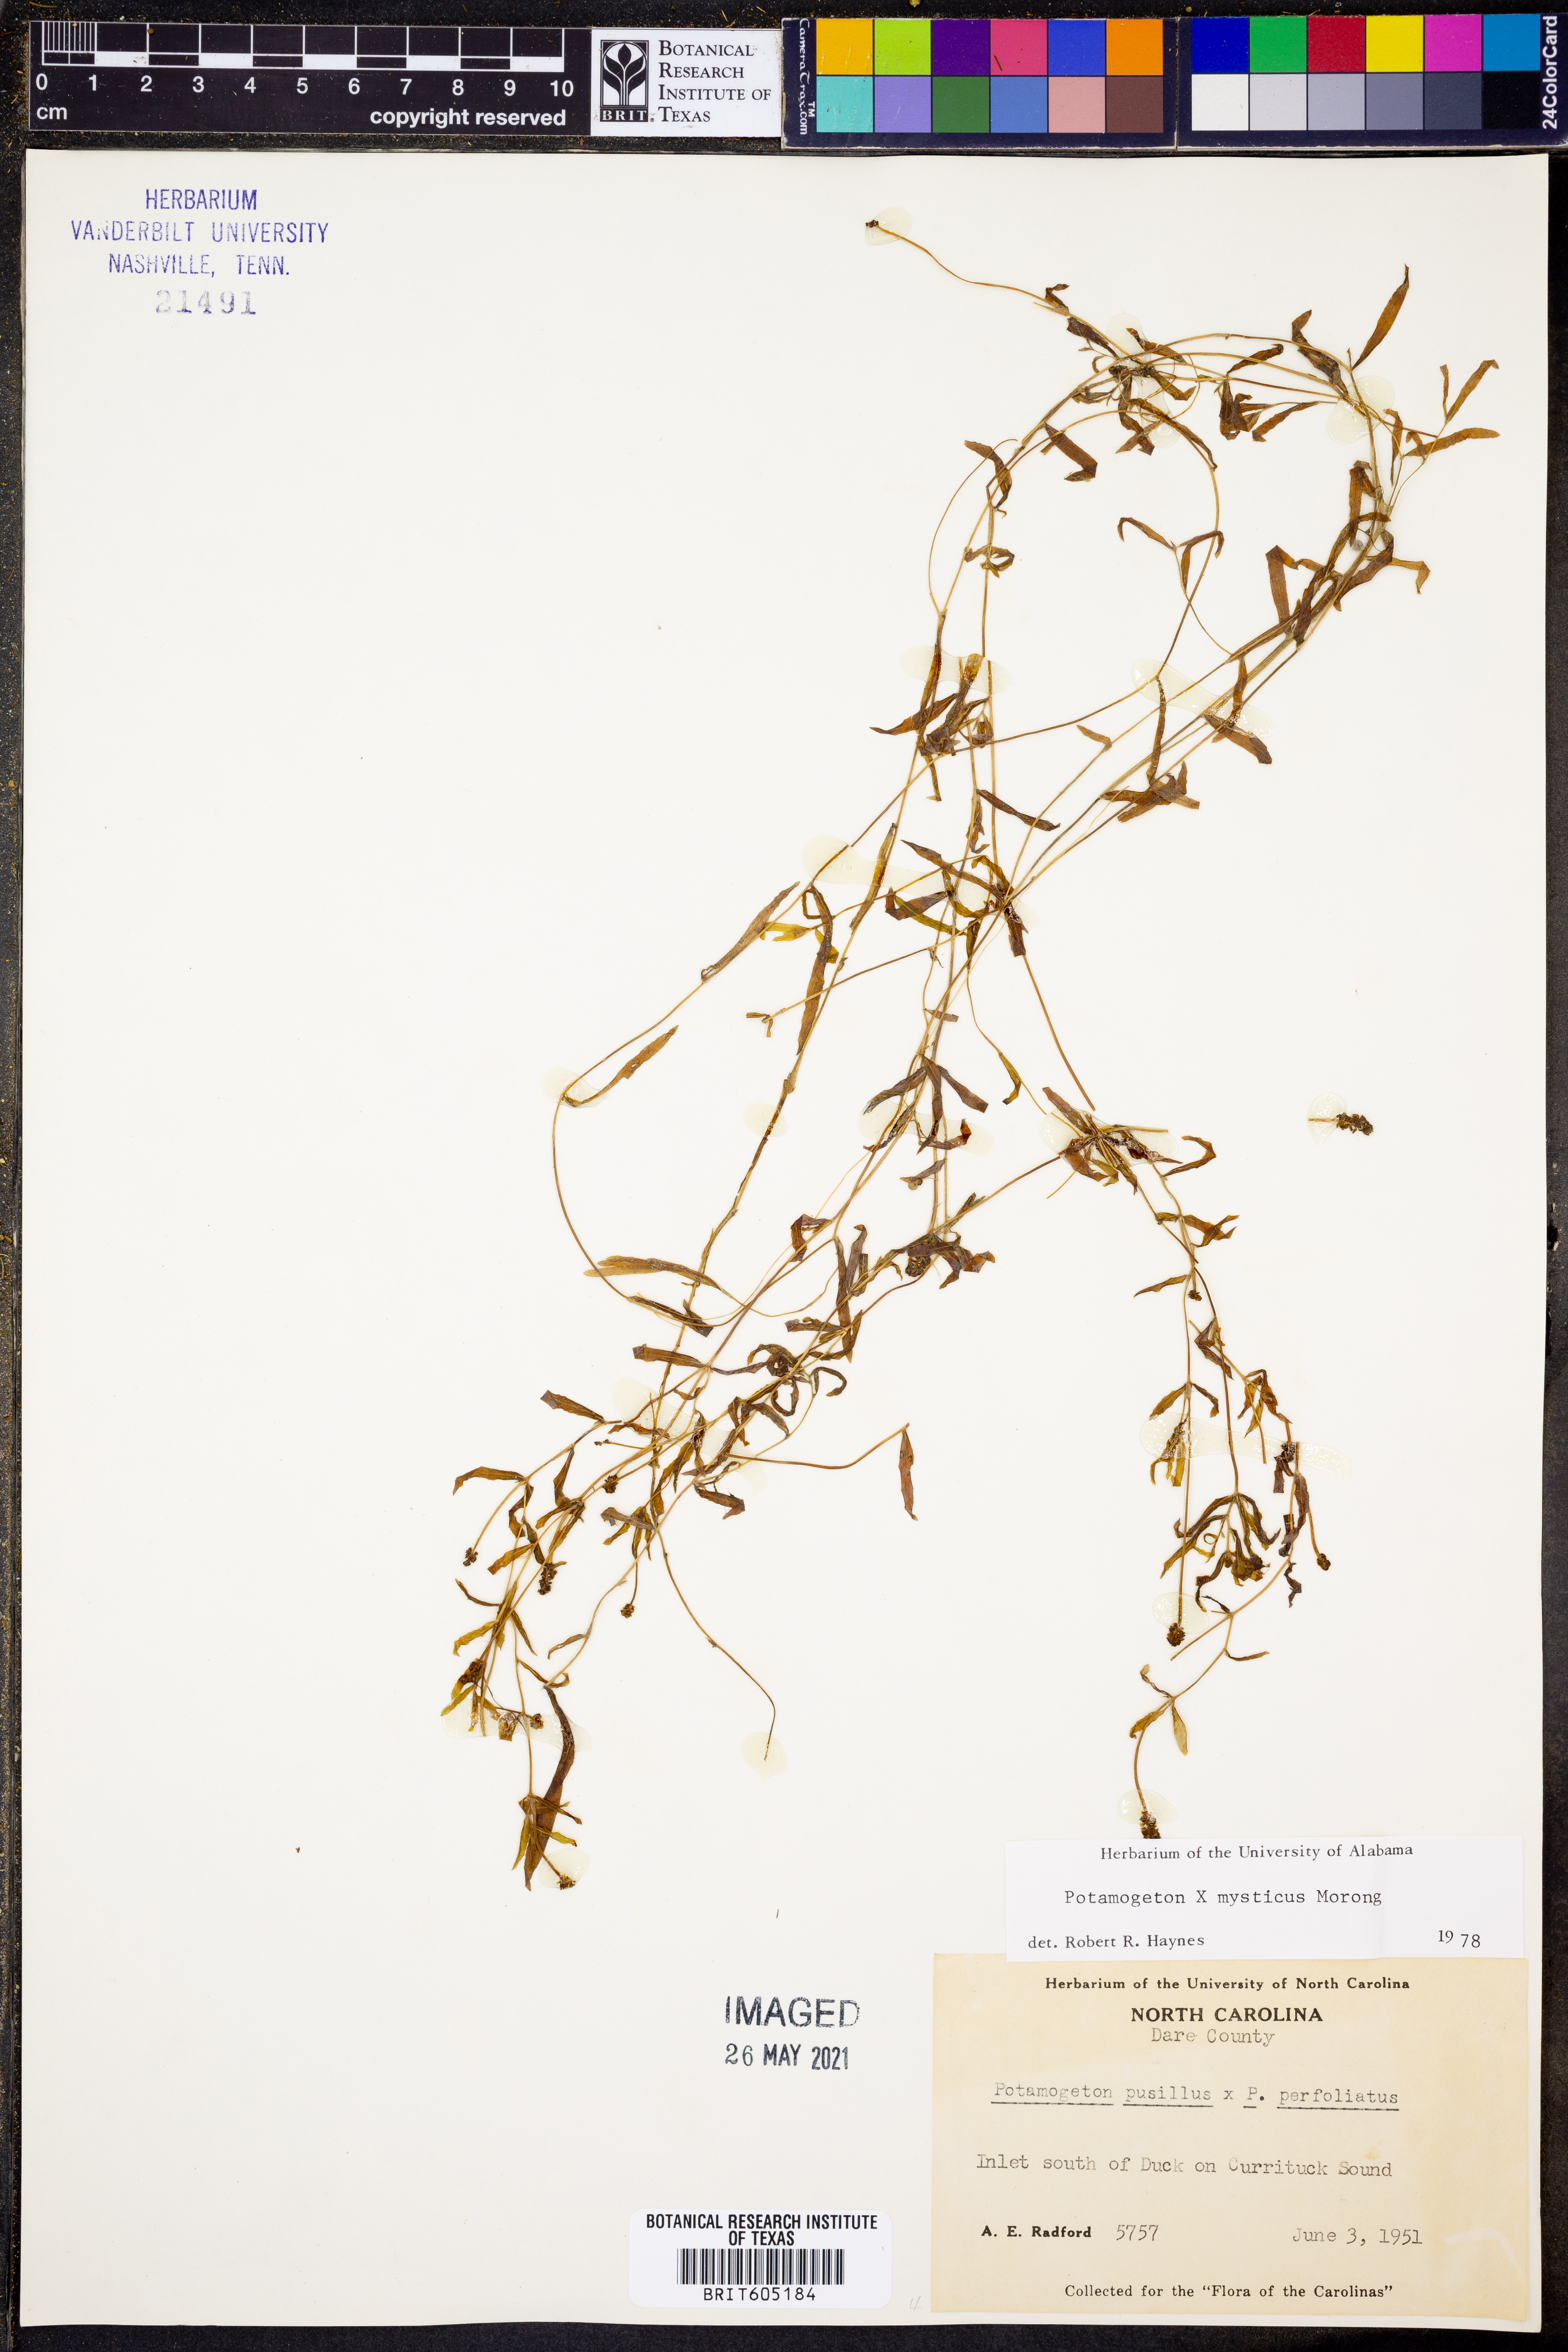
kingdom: Plantae
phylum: Tracheophyta
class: Liliopsida
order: Alismatales
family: Potamogetonaceae
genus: Potamogeton
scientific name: Potamogeton
